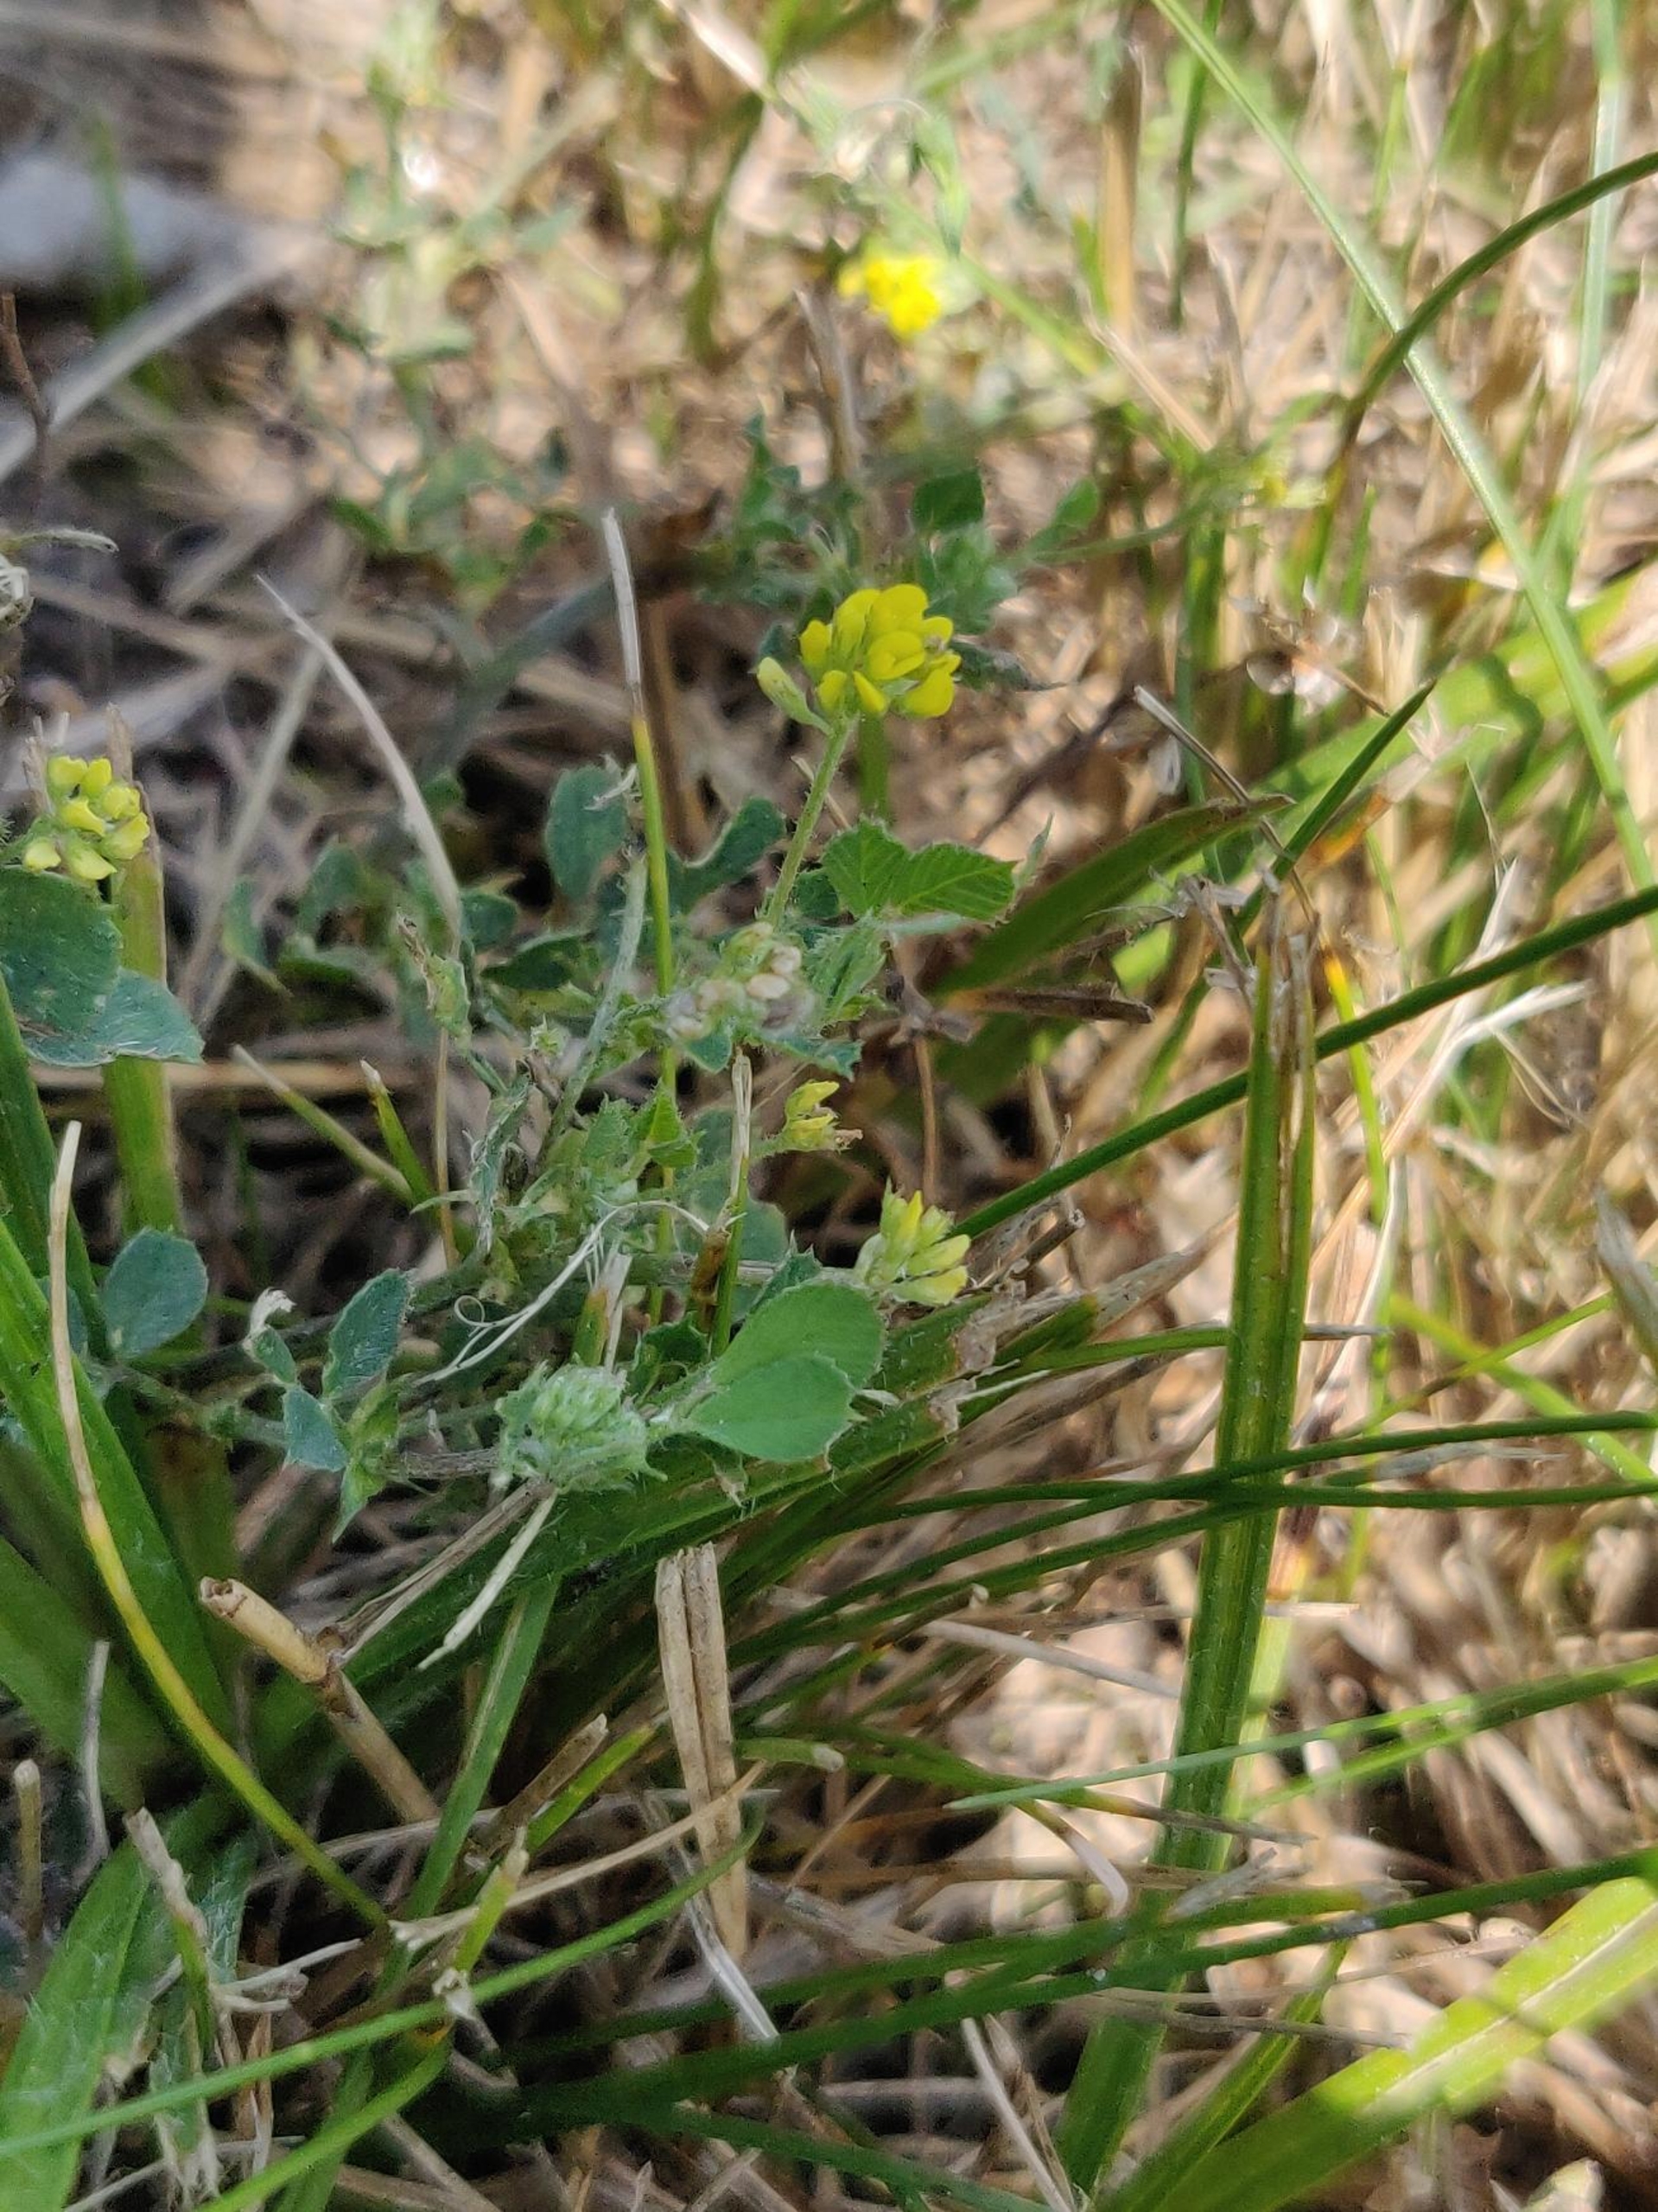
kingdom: Plantae
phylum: Tracheophyta
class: Magnoliopsida
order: Fabales
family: Fabaceae
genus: Medicago
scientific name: Medicago lupulina
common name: Humle-sneglebælg
